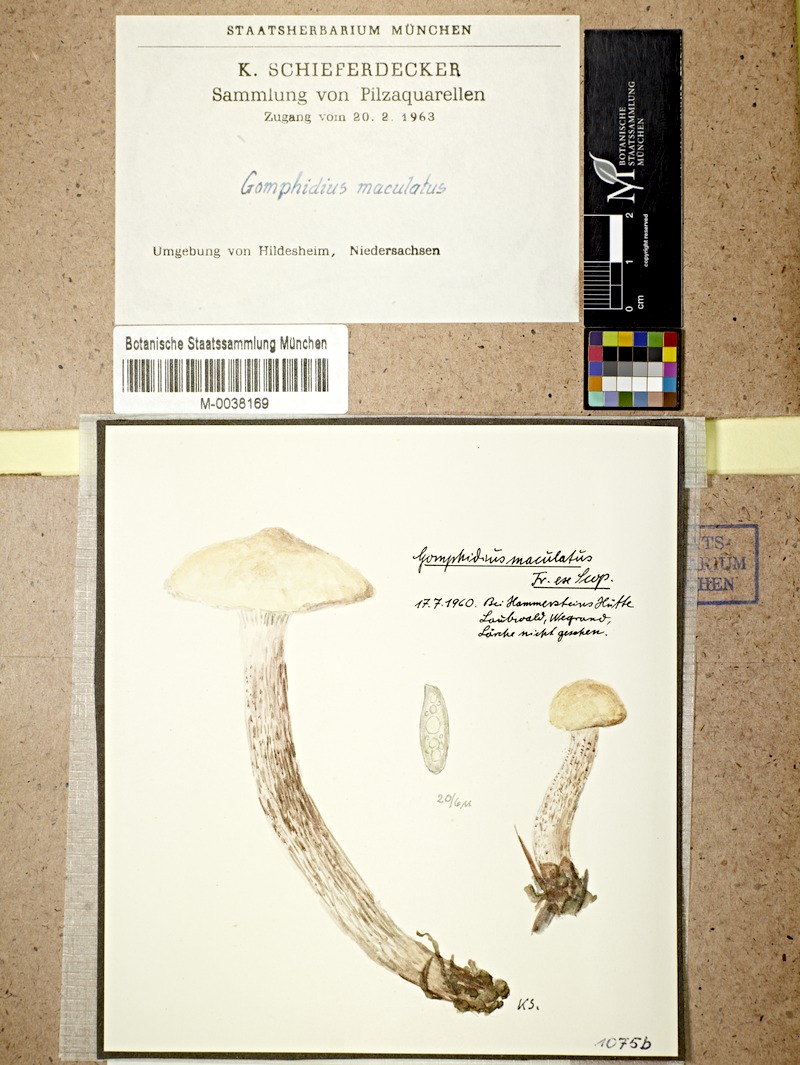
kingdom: Fungi
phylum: Basidiomycota
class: Agaricomycetes
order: Boletales
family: Gomphidiaceae
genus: Gomphidius
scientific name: Gomphidius maculatus
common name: Larch spike
